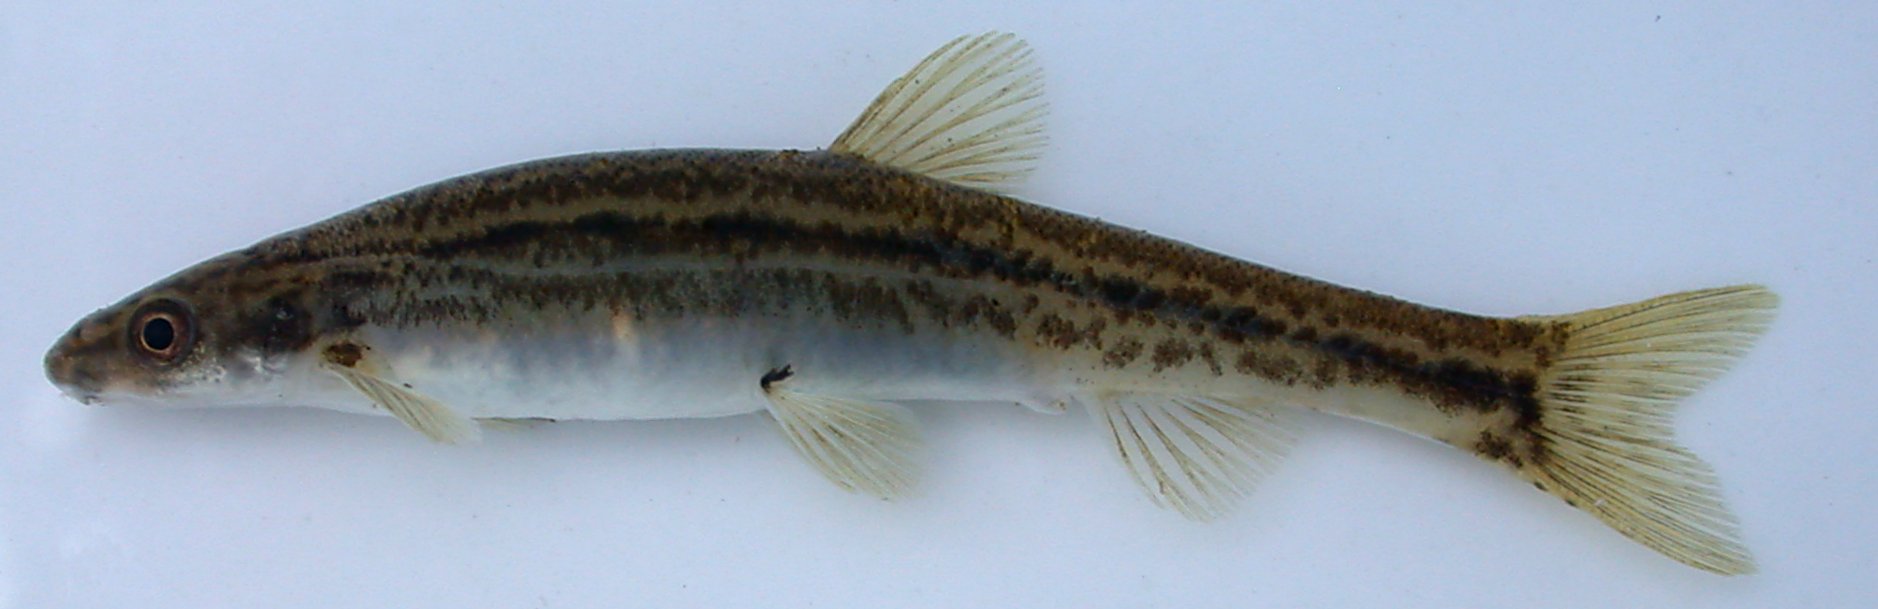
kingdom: Animalia
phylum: Chordata
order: Gonorynchiformes
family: Kneriidae
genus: Kneria
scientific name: Kneria stappersii
